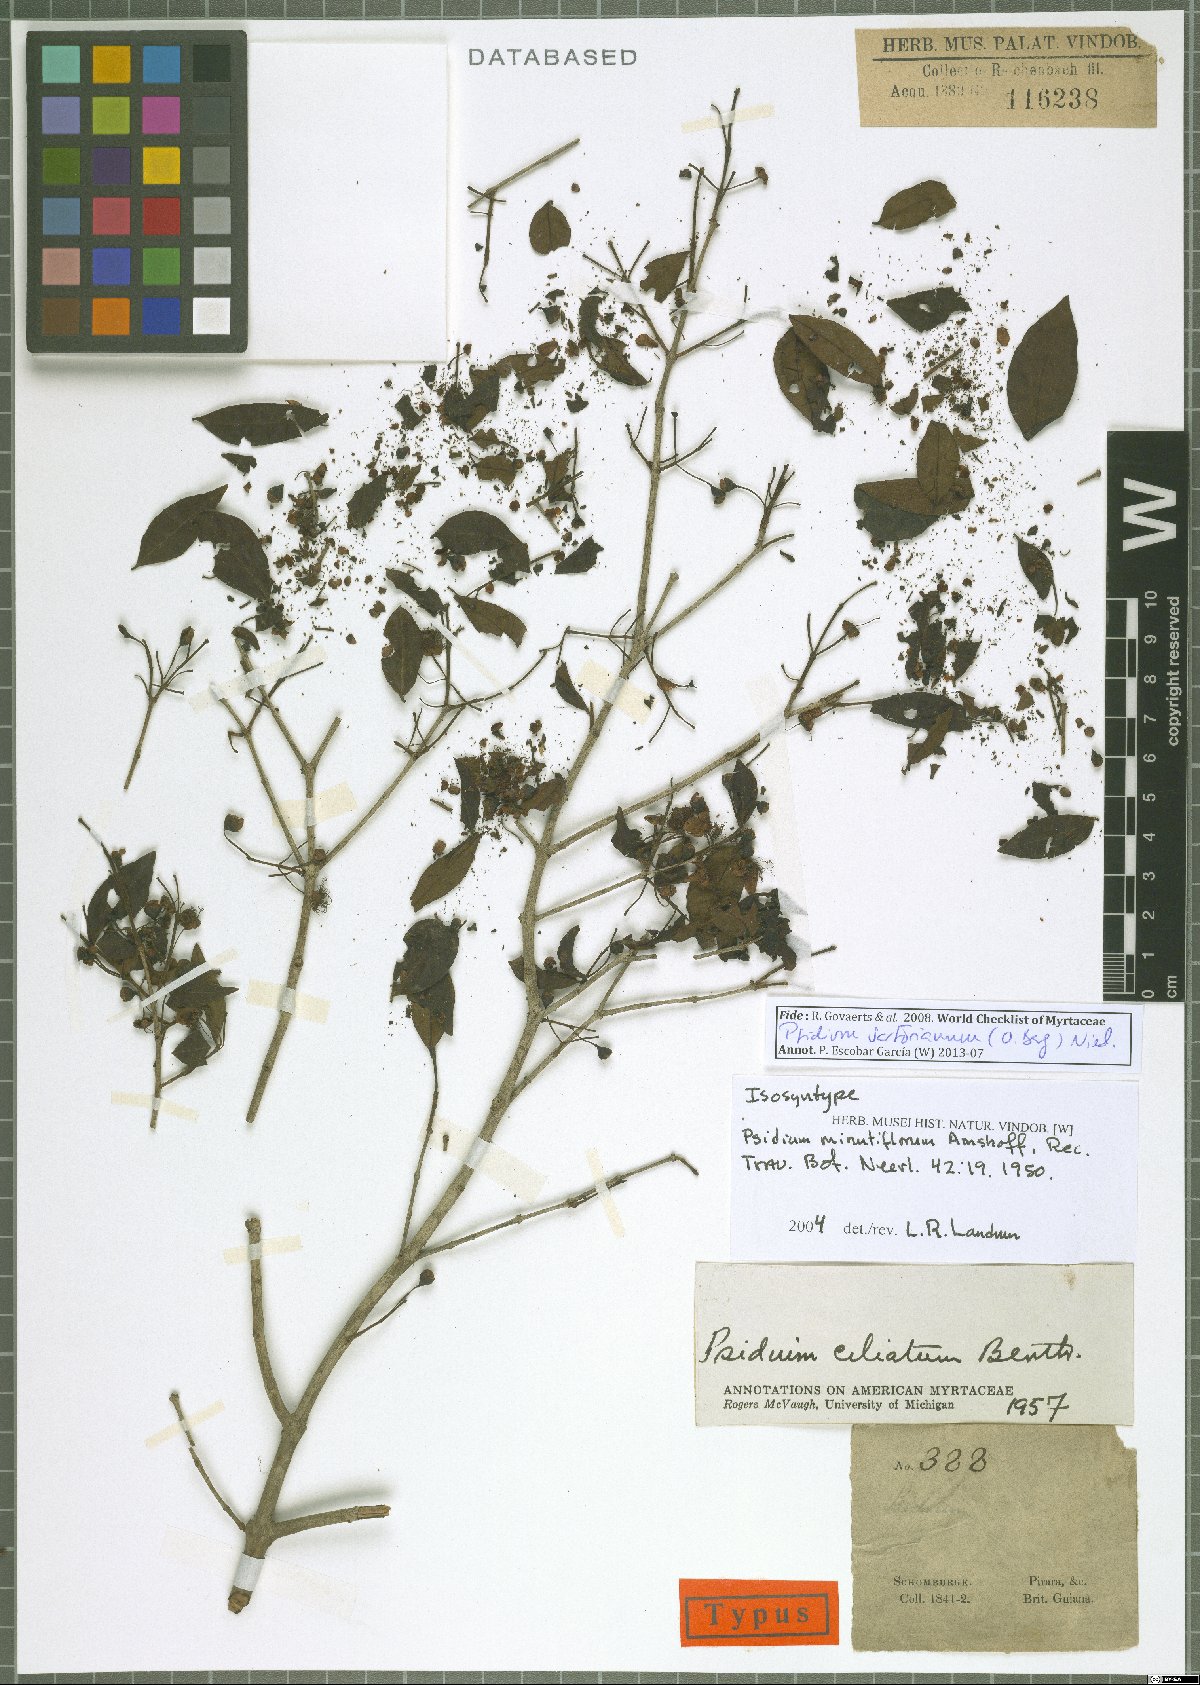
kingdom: Plantae
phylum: Tracheophyta
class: Magnoliopsida
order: Myrtales
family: Myrtaceae
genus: Psidium
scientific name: Psidium sartorianum
